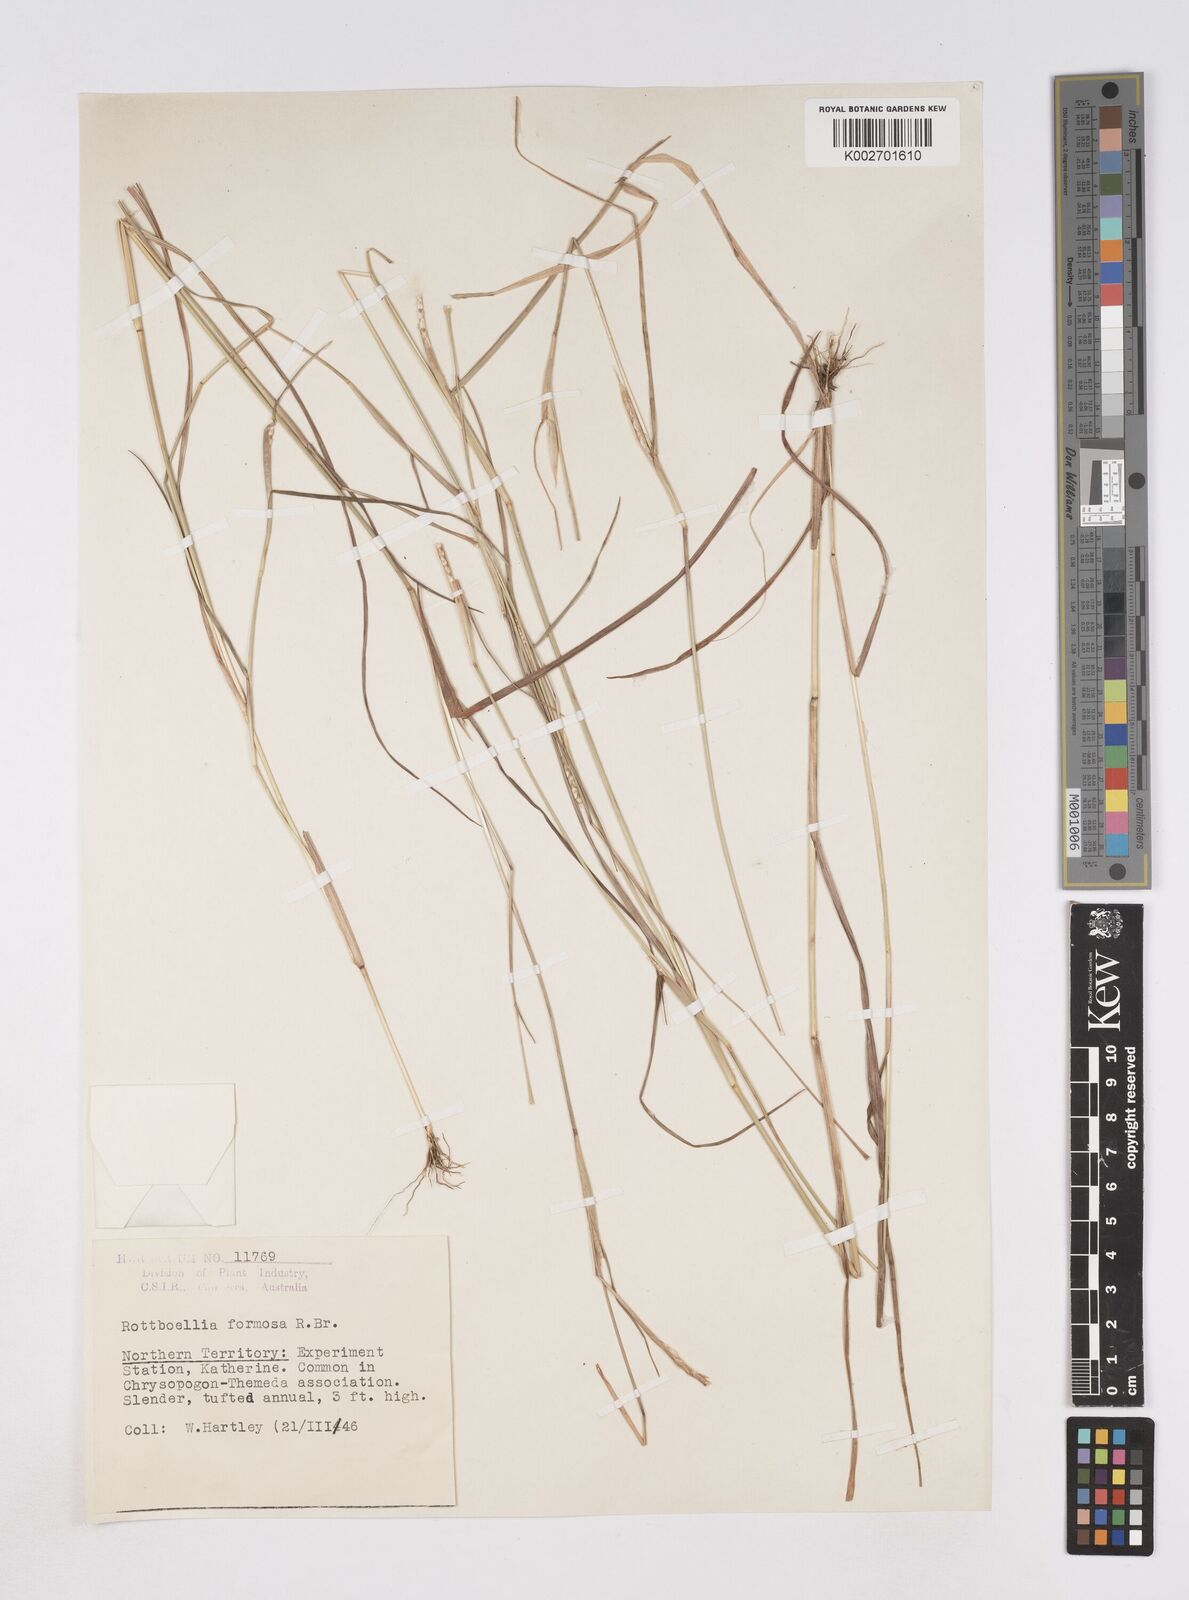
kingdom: Plantae
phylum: Tracheophyta
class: Liliopsida
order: Poales
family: Poaceae
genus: Heteropholis
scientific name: Heteropholis
